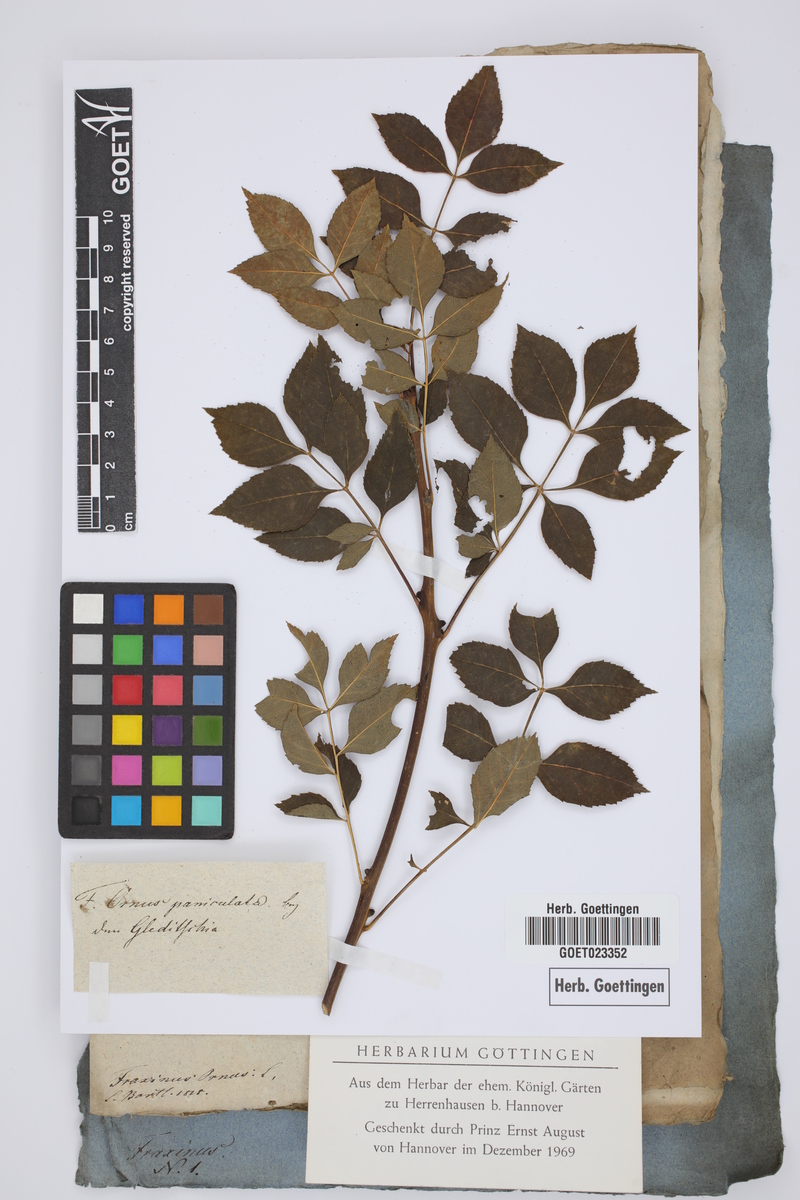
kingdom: Plantae
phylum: Tracheophyta
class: Magnoliopsida
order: Lamiales
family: Oleaceae
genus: Fraxinus
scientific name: Fraxinus ornus
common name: Manna ash
